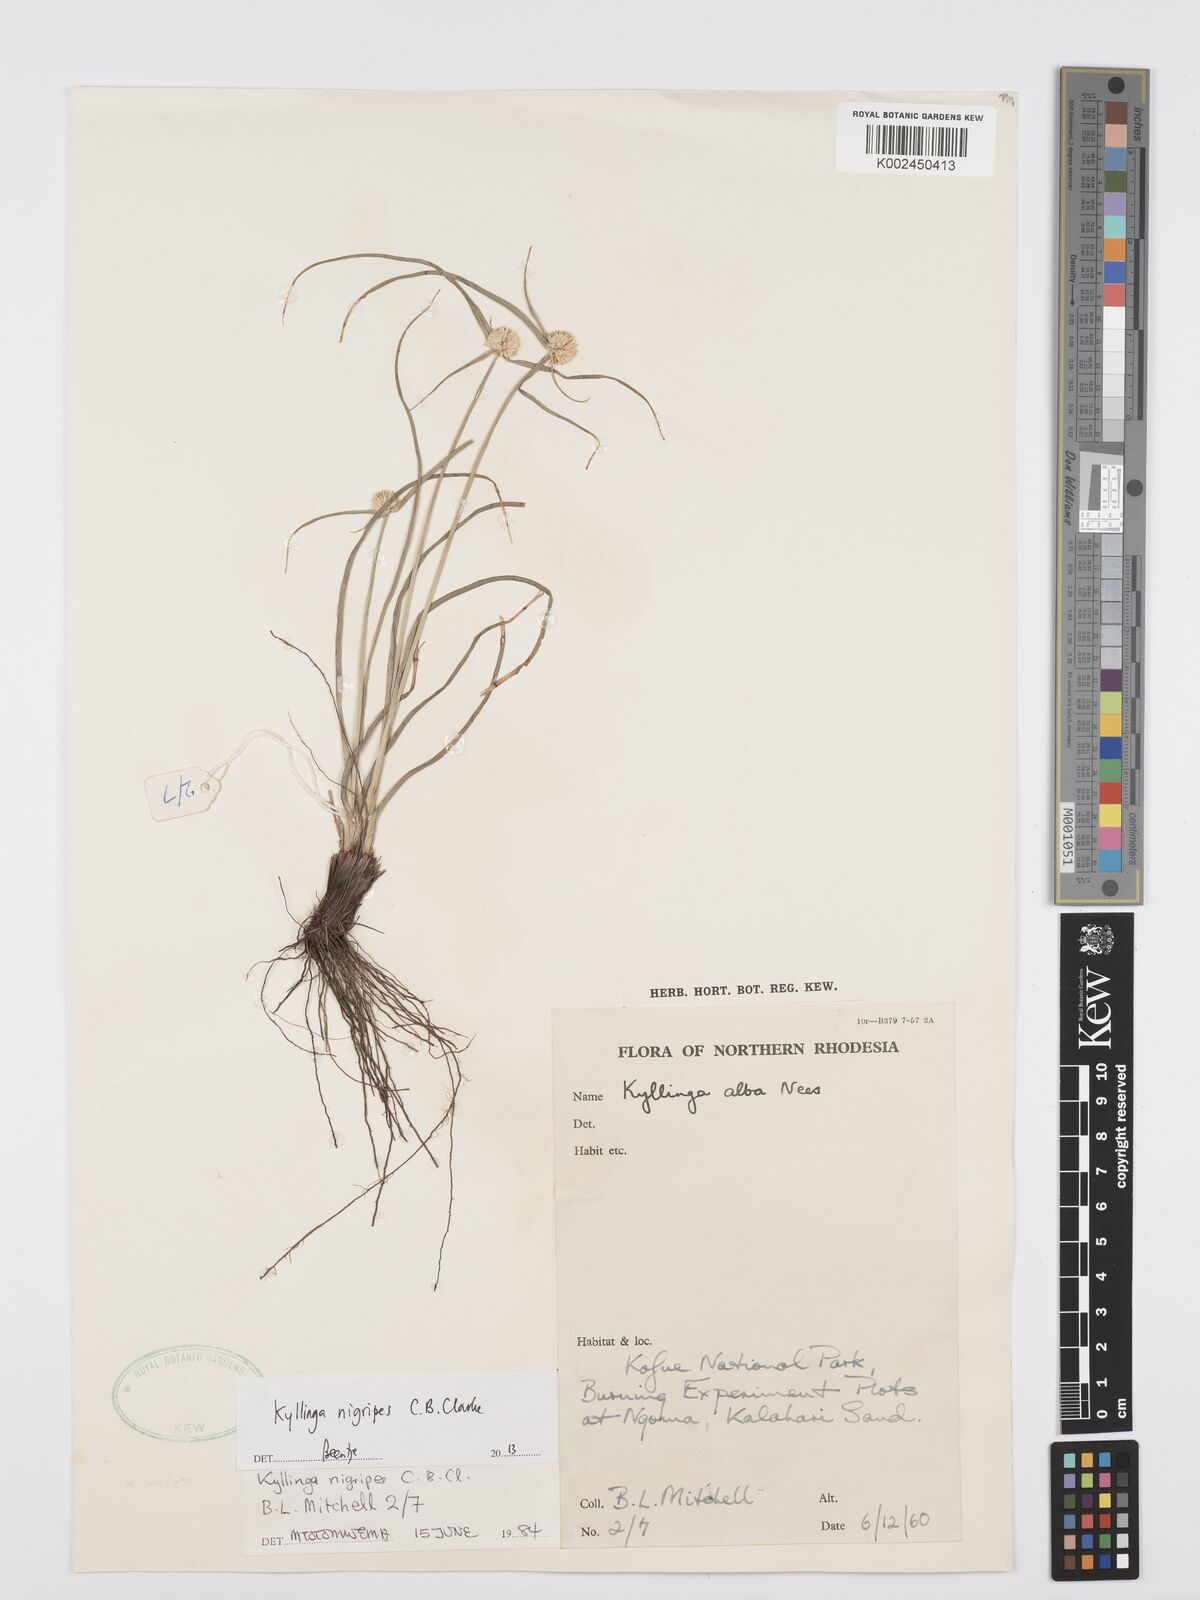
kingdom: Plantae
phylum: Tracheophyta
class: Liliopsida
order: Poales
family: Cyperaceae
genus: Cyperus
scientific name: Cyperus nigripes
